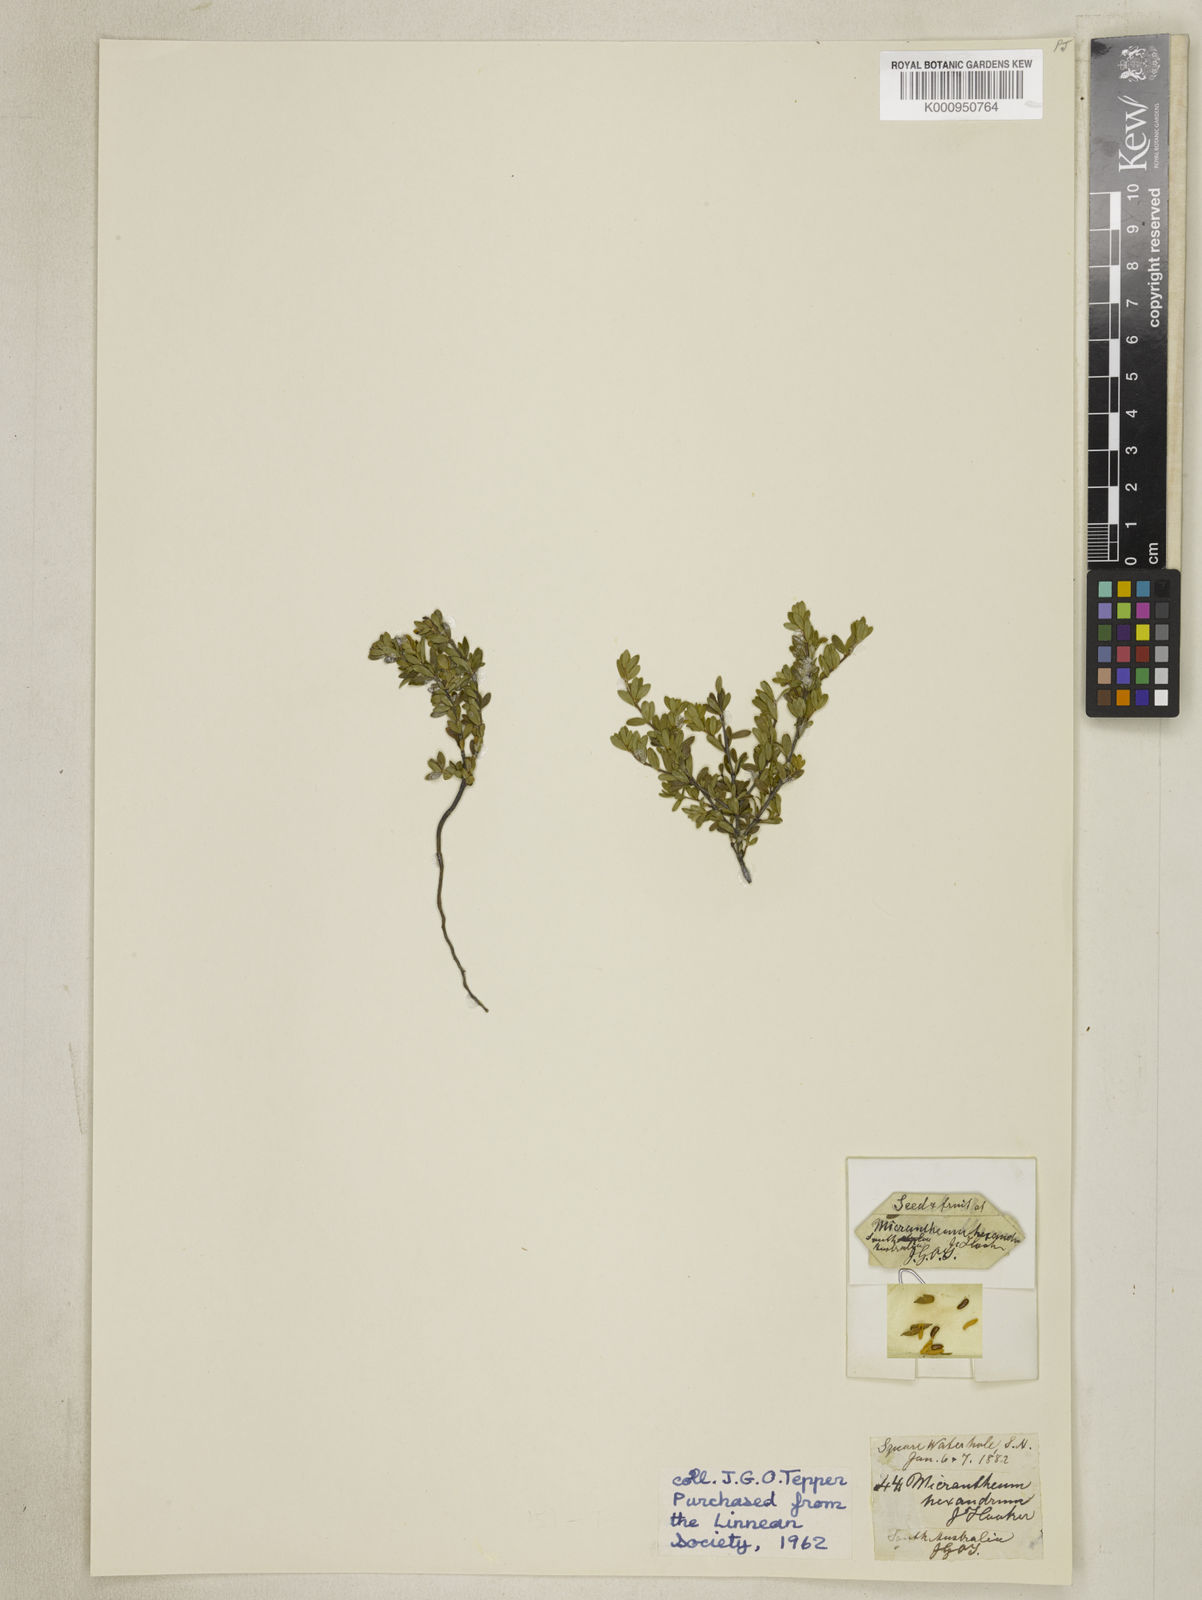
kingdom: Plantae
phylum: Tracheophyta
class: Magnoliopsida
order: Malpighiales
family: Picrodendraceae
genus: Micrantheum
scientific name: Micrantheum demissum
